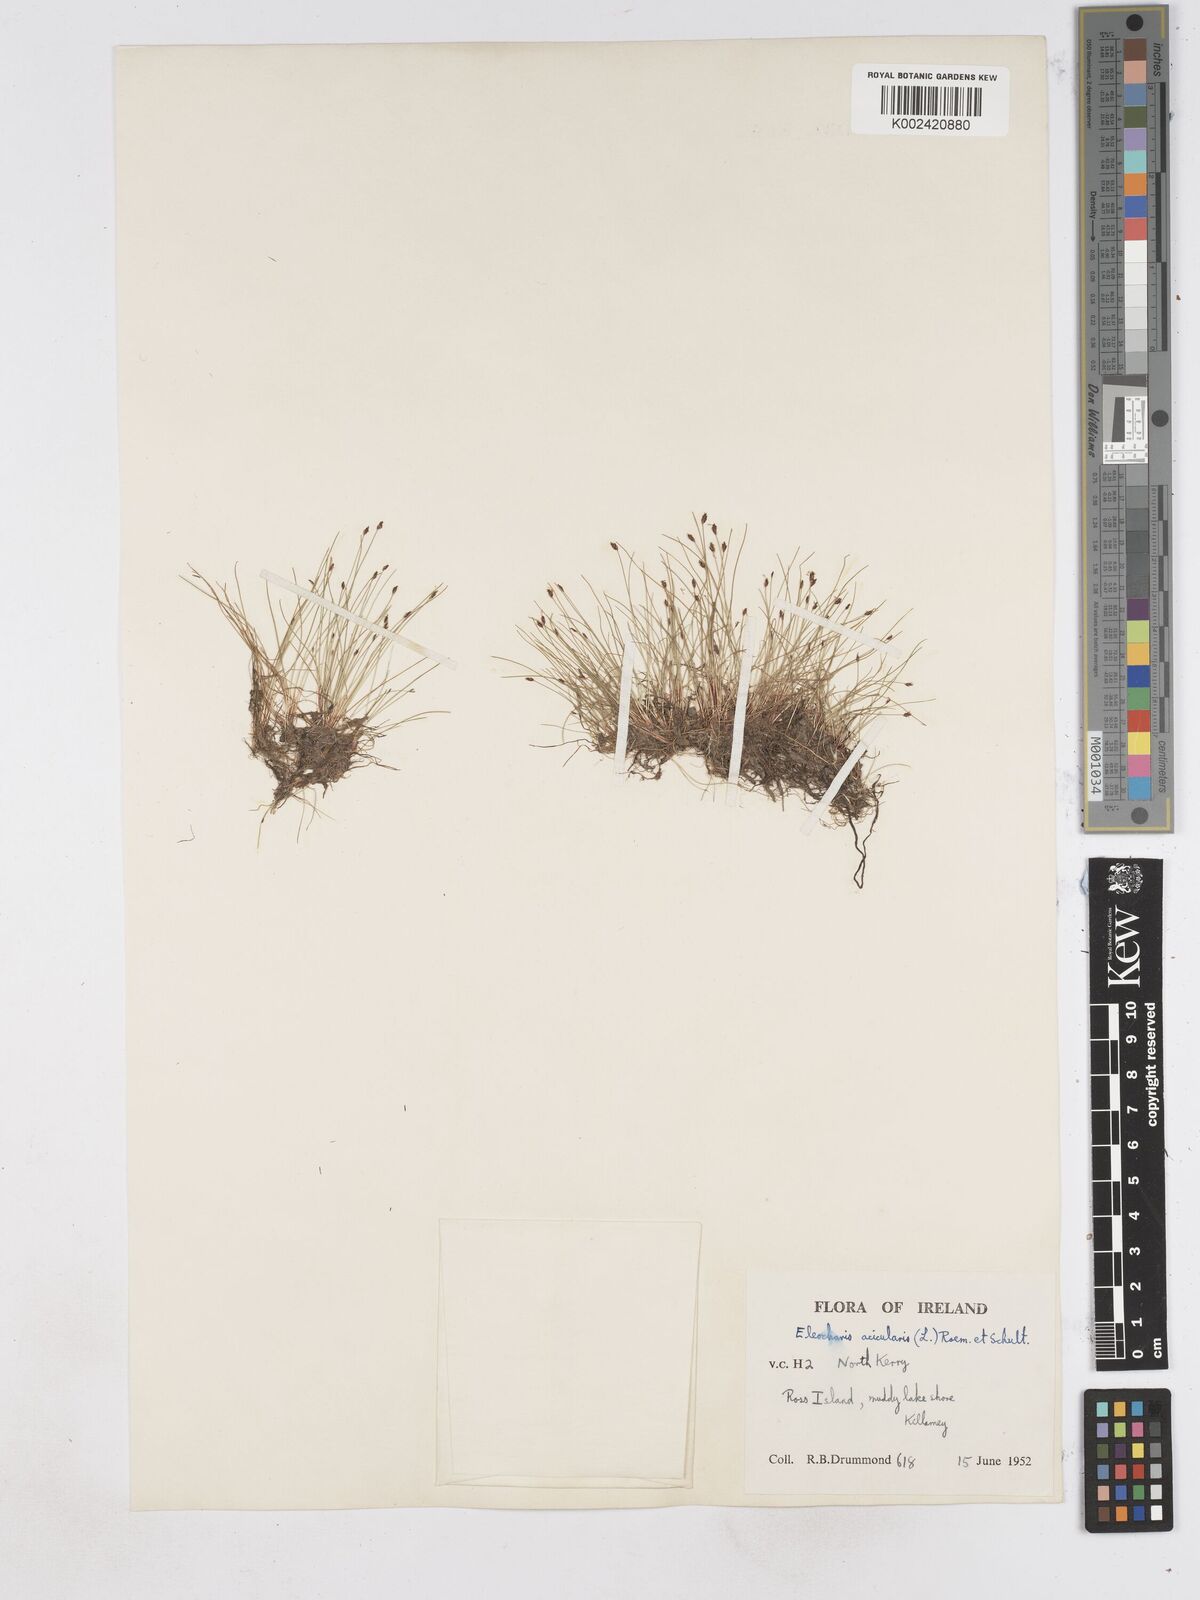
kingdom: Plantae
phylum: Tracheophyta
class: Liliopsida
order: Poales
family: Cyperaceae
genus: Eleocharis
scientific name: Eleocharis acicularis
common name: Needle spike-rush
